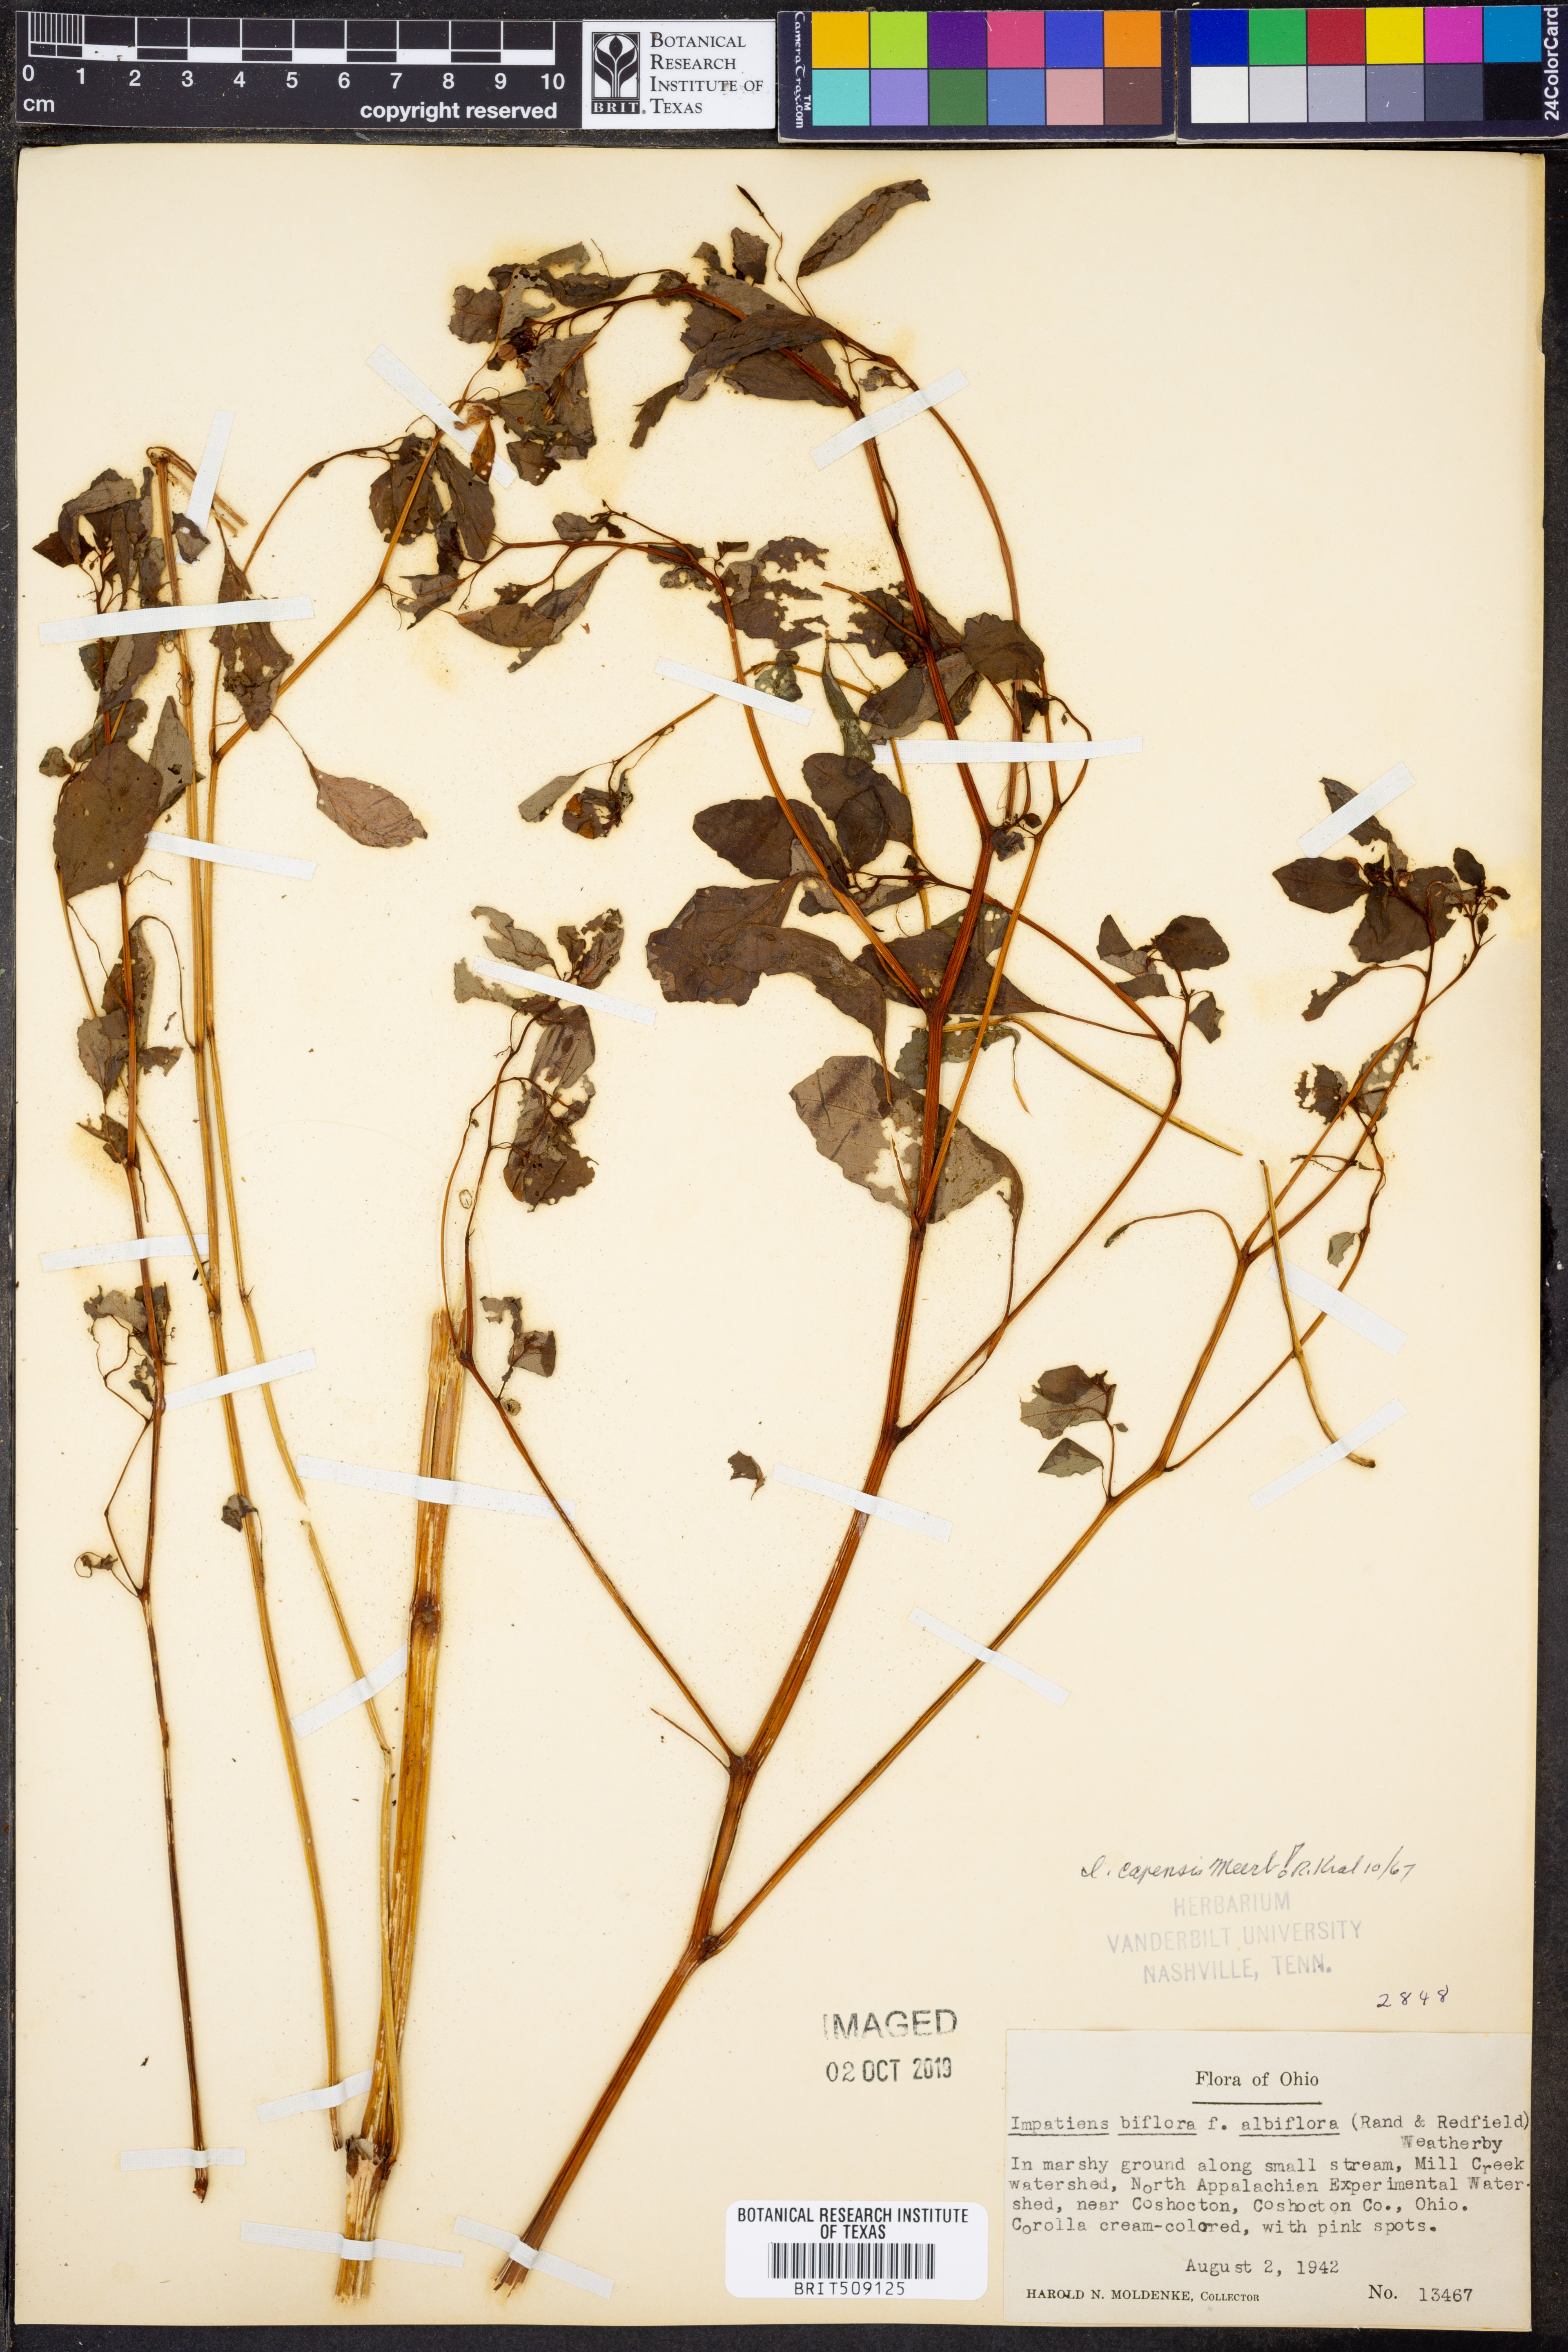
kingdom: Plantae
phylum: Tracheophyta
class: Magnoliopsida
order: Ericales
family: Balsaminaceae
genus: Impatiens
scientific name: Impatiens capensis
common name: Orange balsam
